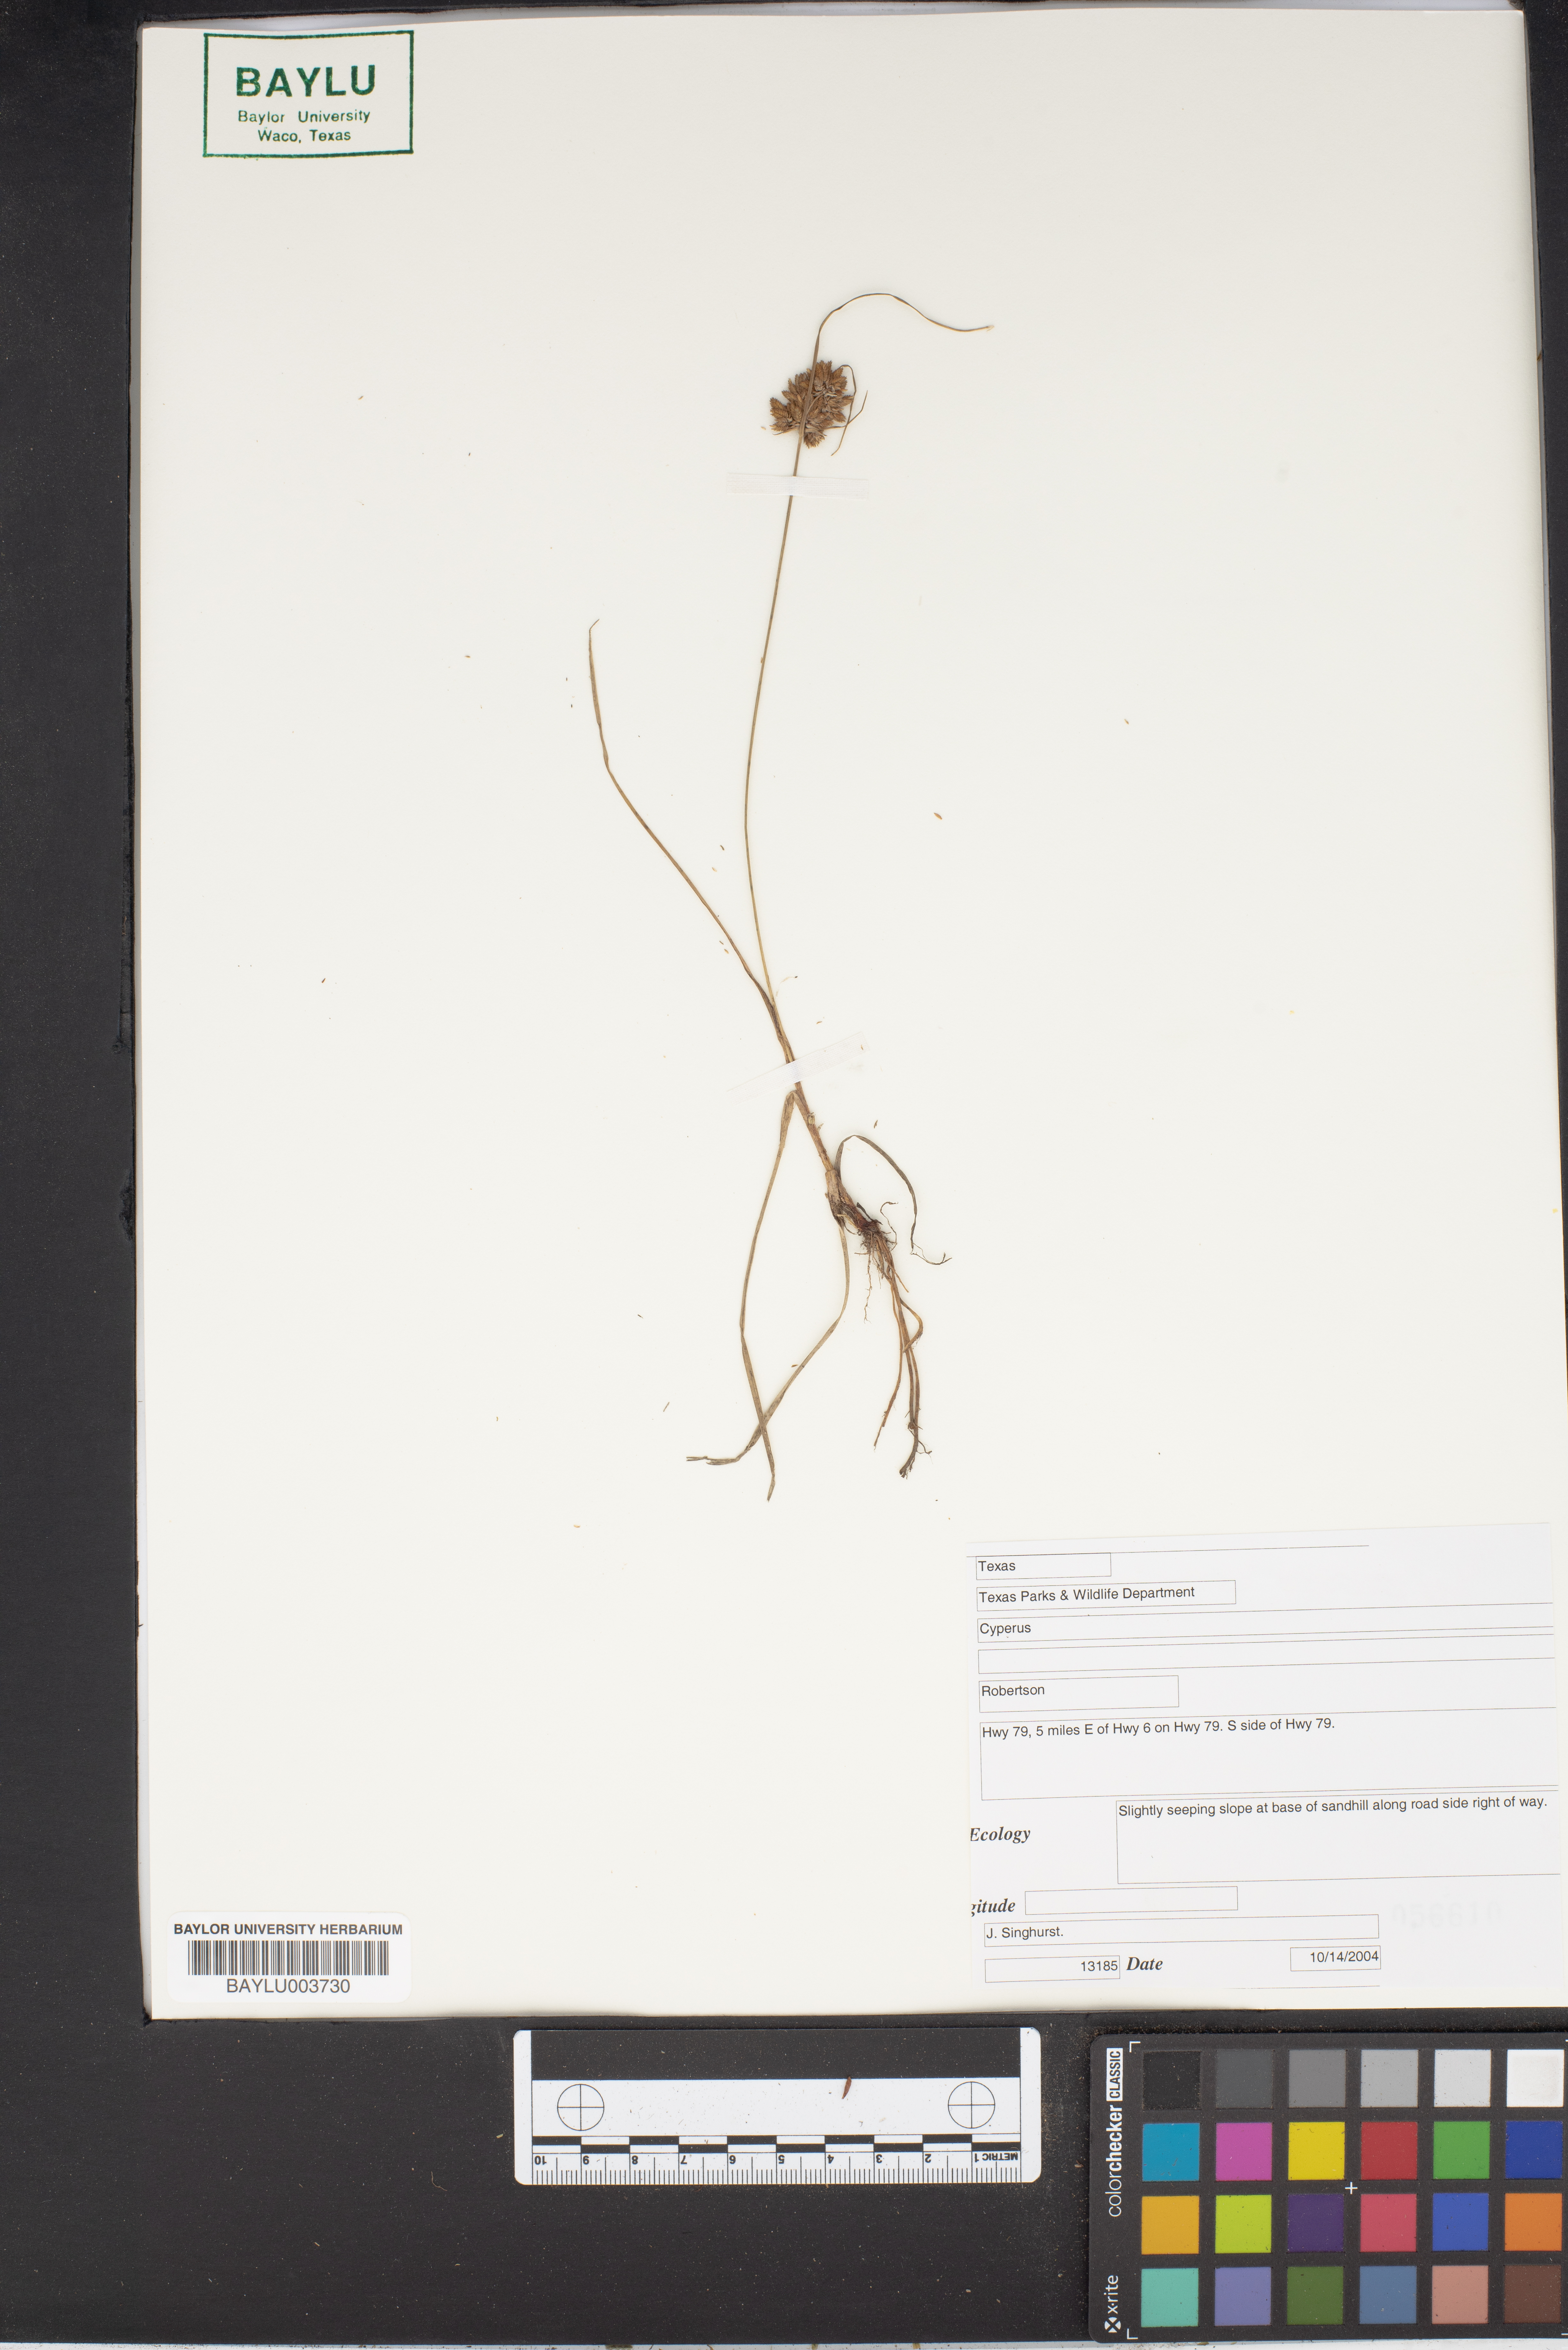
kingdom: Plantae
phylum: Tracheophyta
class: Liliopsida
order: Poales
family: Cyperaceae
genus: Cyperus
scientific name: Cyperus
